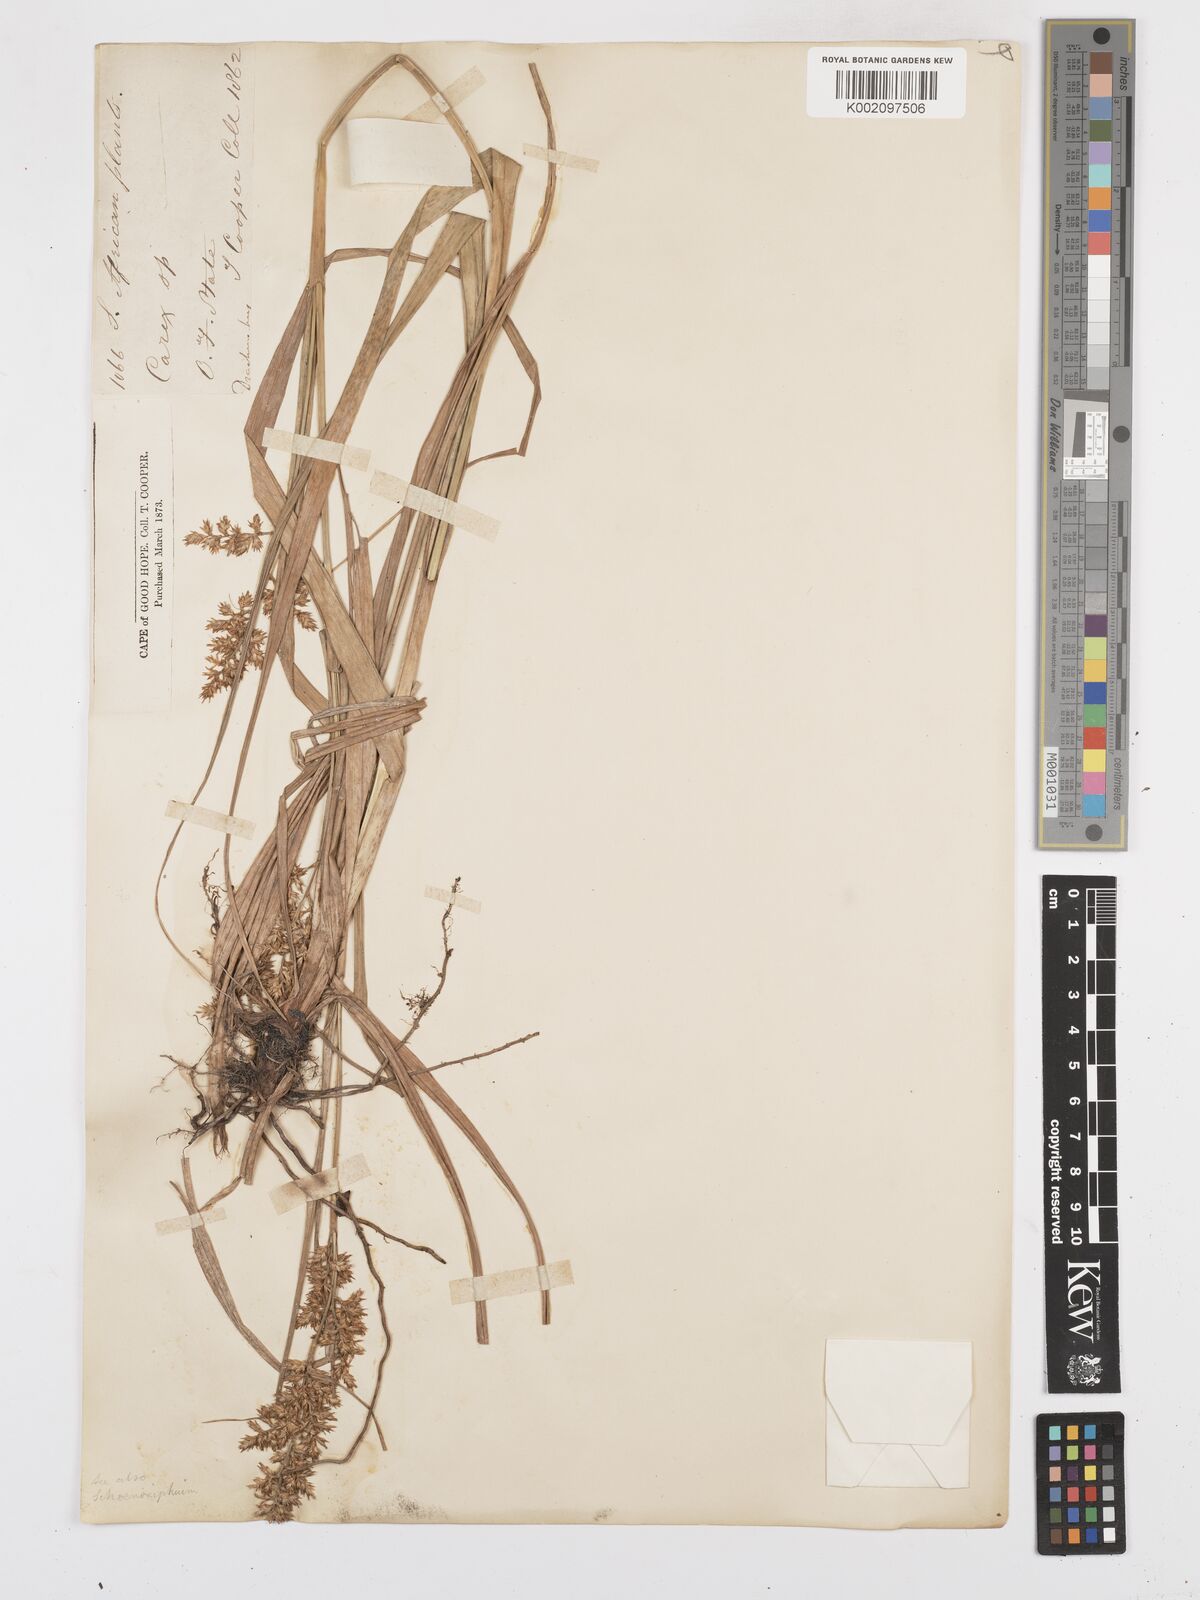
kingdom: Plantae
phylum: Tracheophyta
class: Liliopsida
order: Poales
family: Cyperaceae
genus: Carex
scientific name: Carex spicatopaniculata
